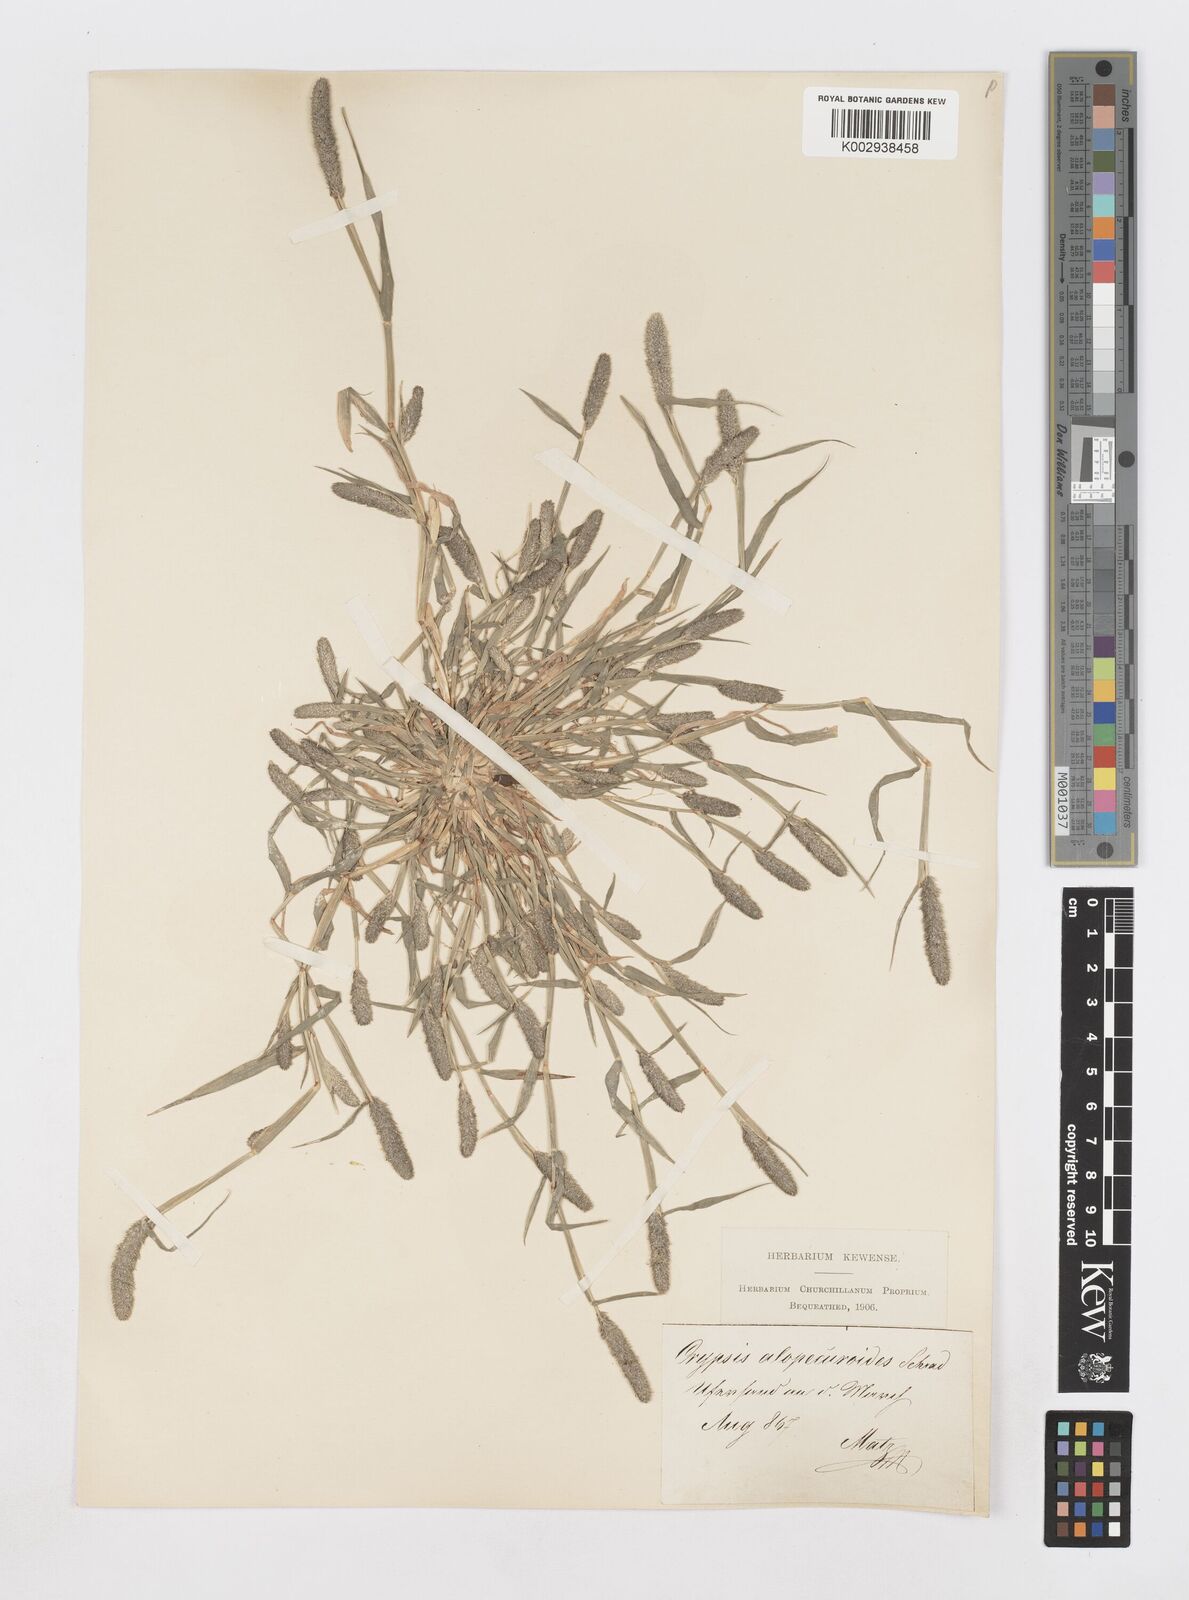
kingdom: Plantae
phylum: Tracheophyta
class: Liliopsida
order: Poales
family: Poaceae
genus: Sporobolus
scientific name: Sporobolus alopecuroides
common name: Foxtail pricklegrass
